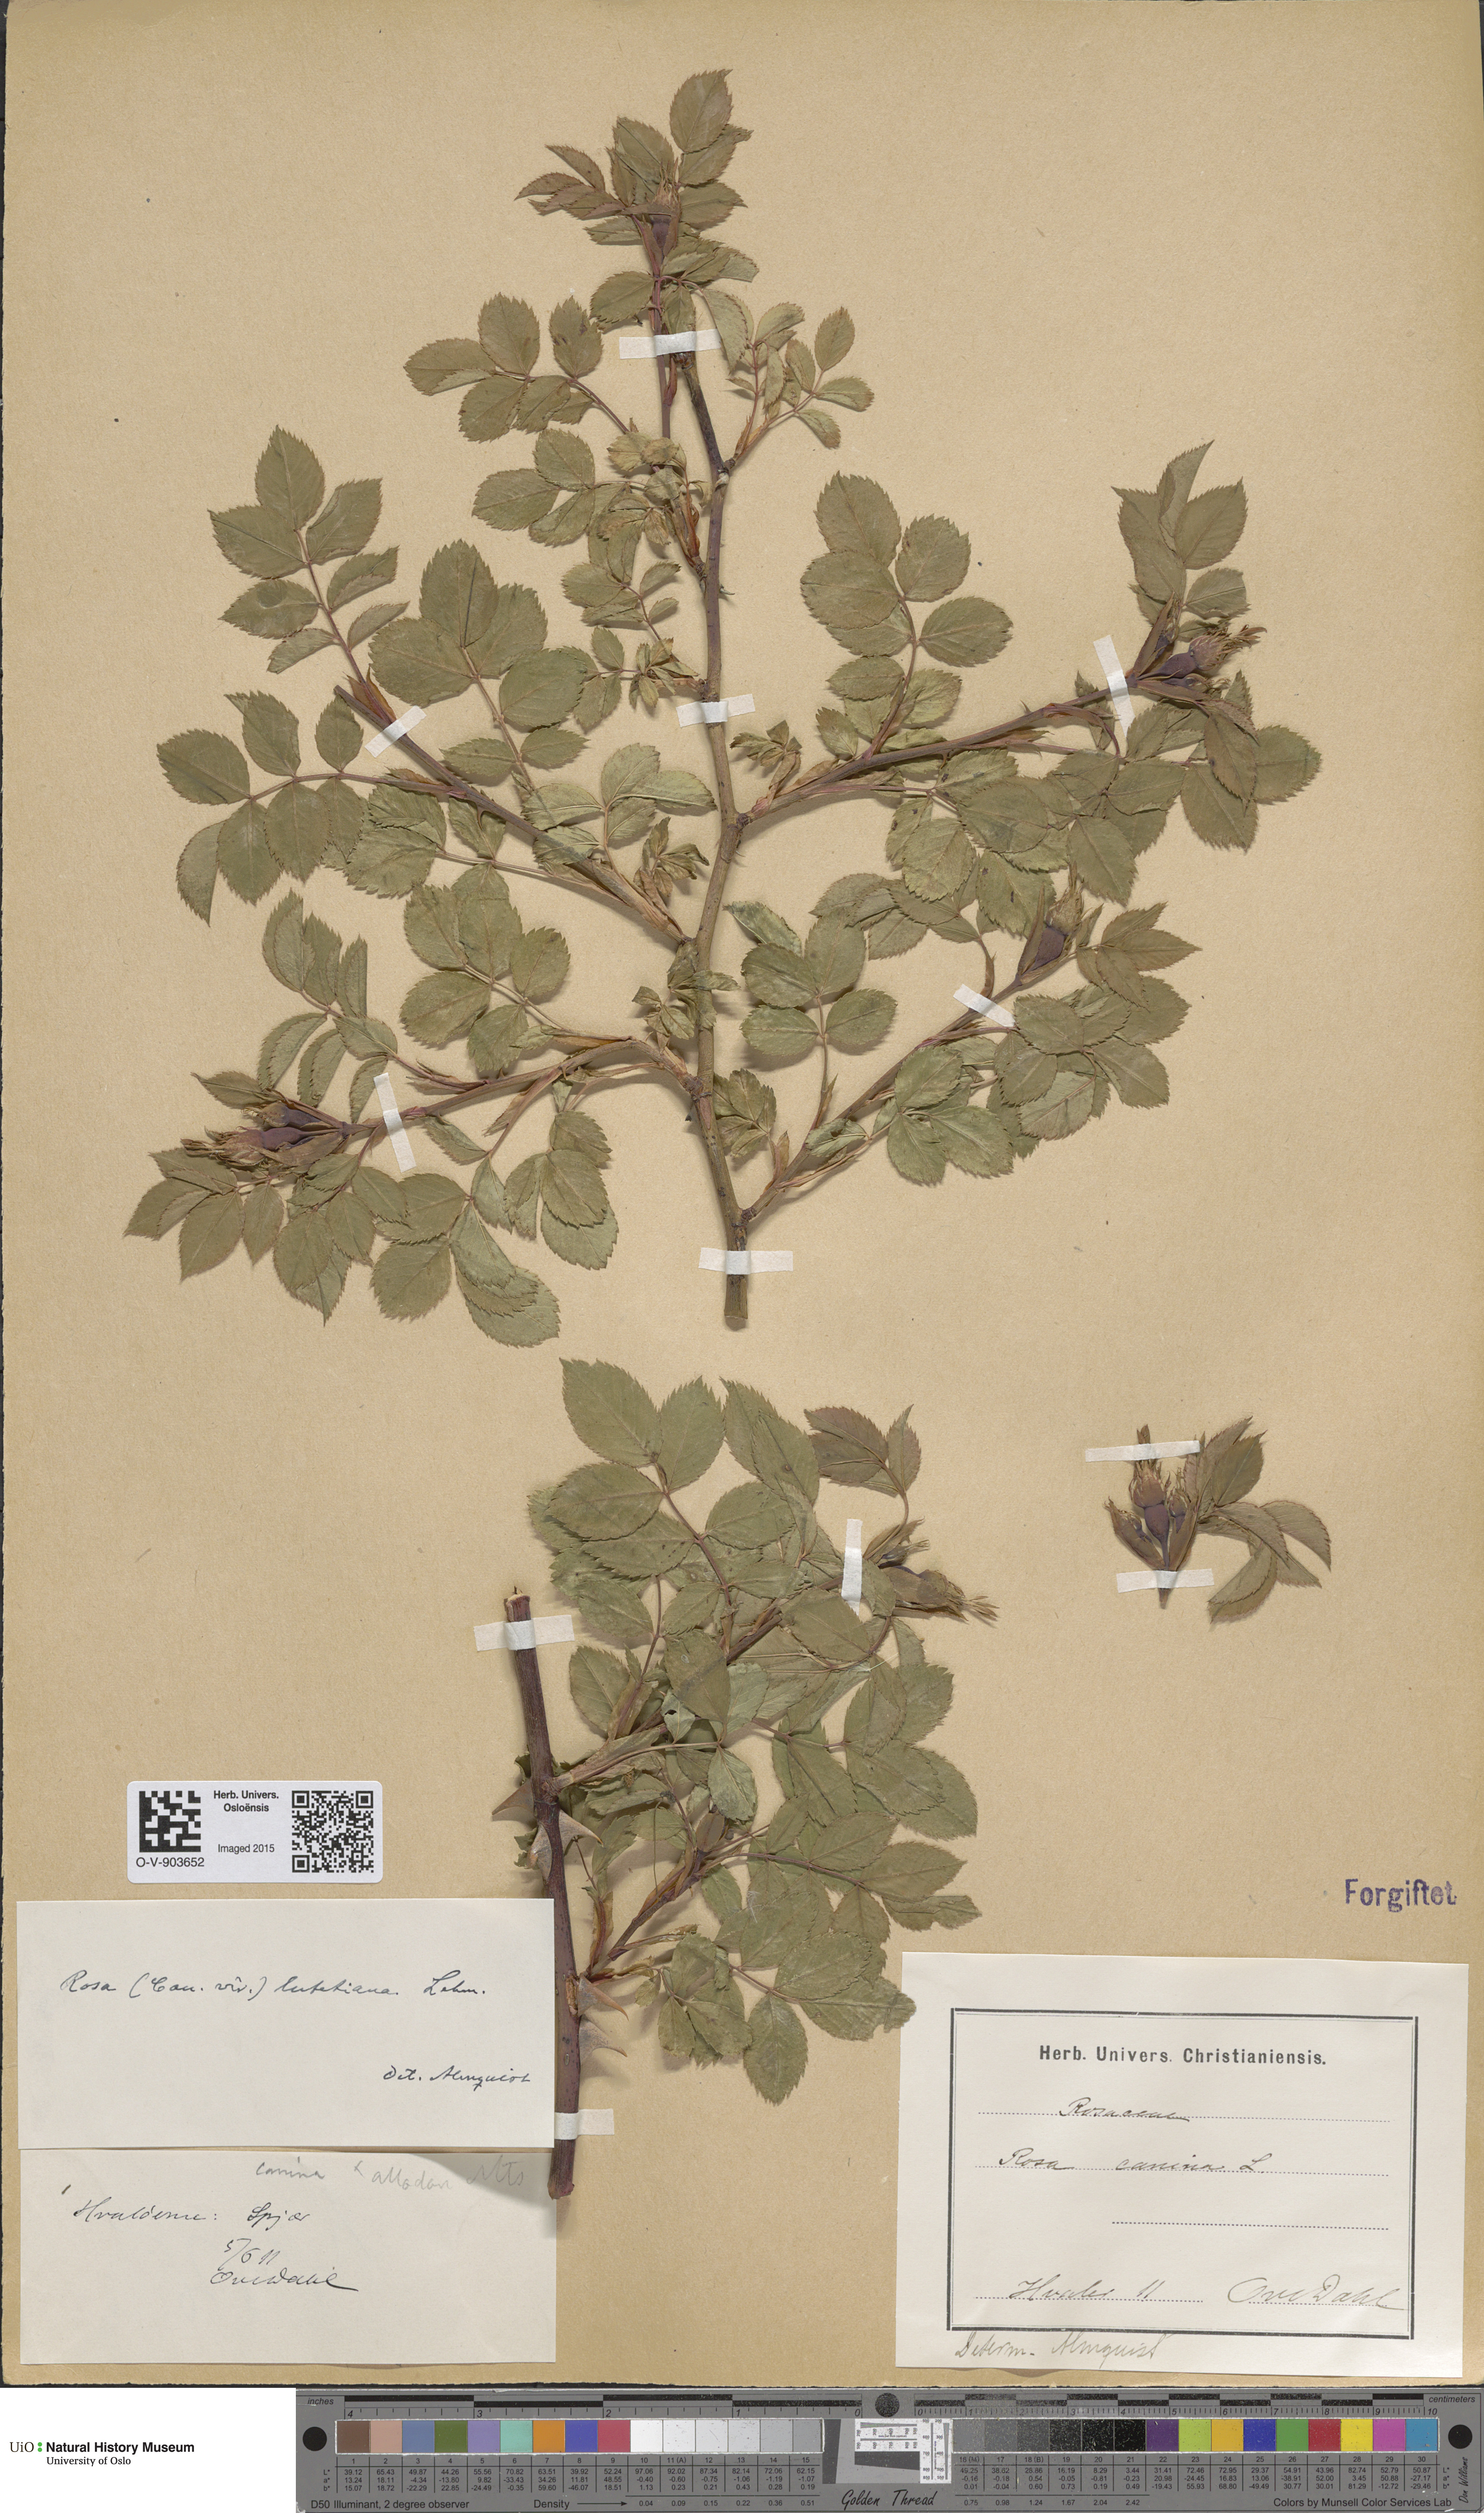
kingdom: Plantae
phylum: Tracheophyta
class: Magnoliopsida
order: Rosales
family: Rosaceae
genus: Rosa
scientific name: Rosa canina
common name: Dog rose
